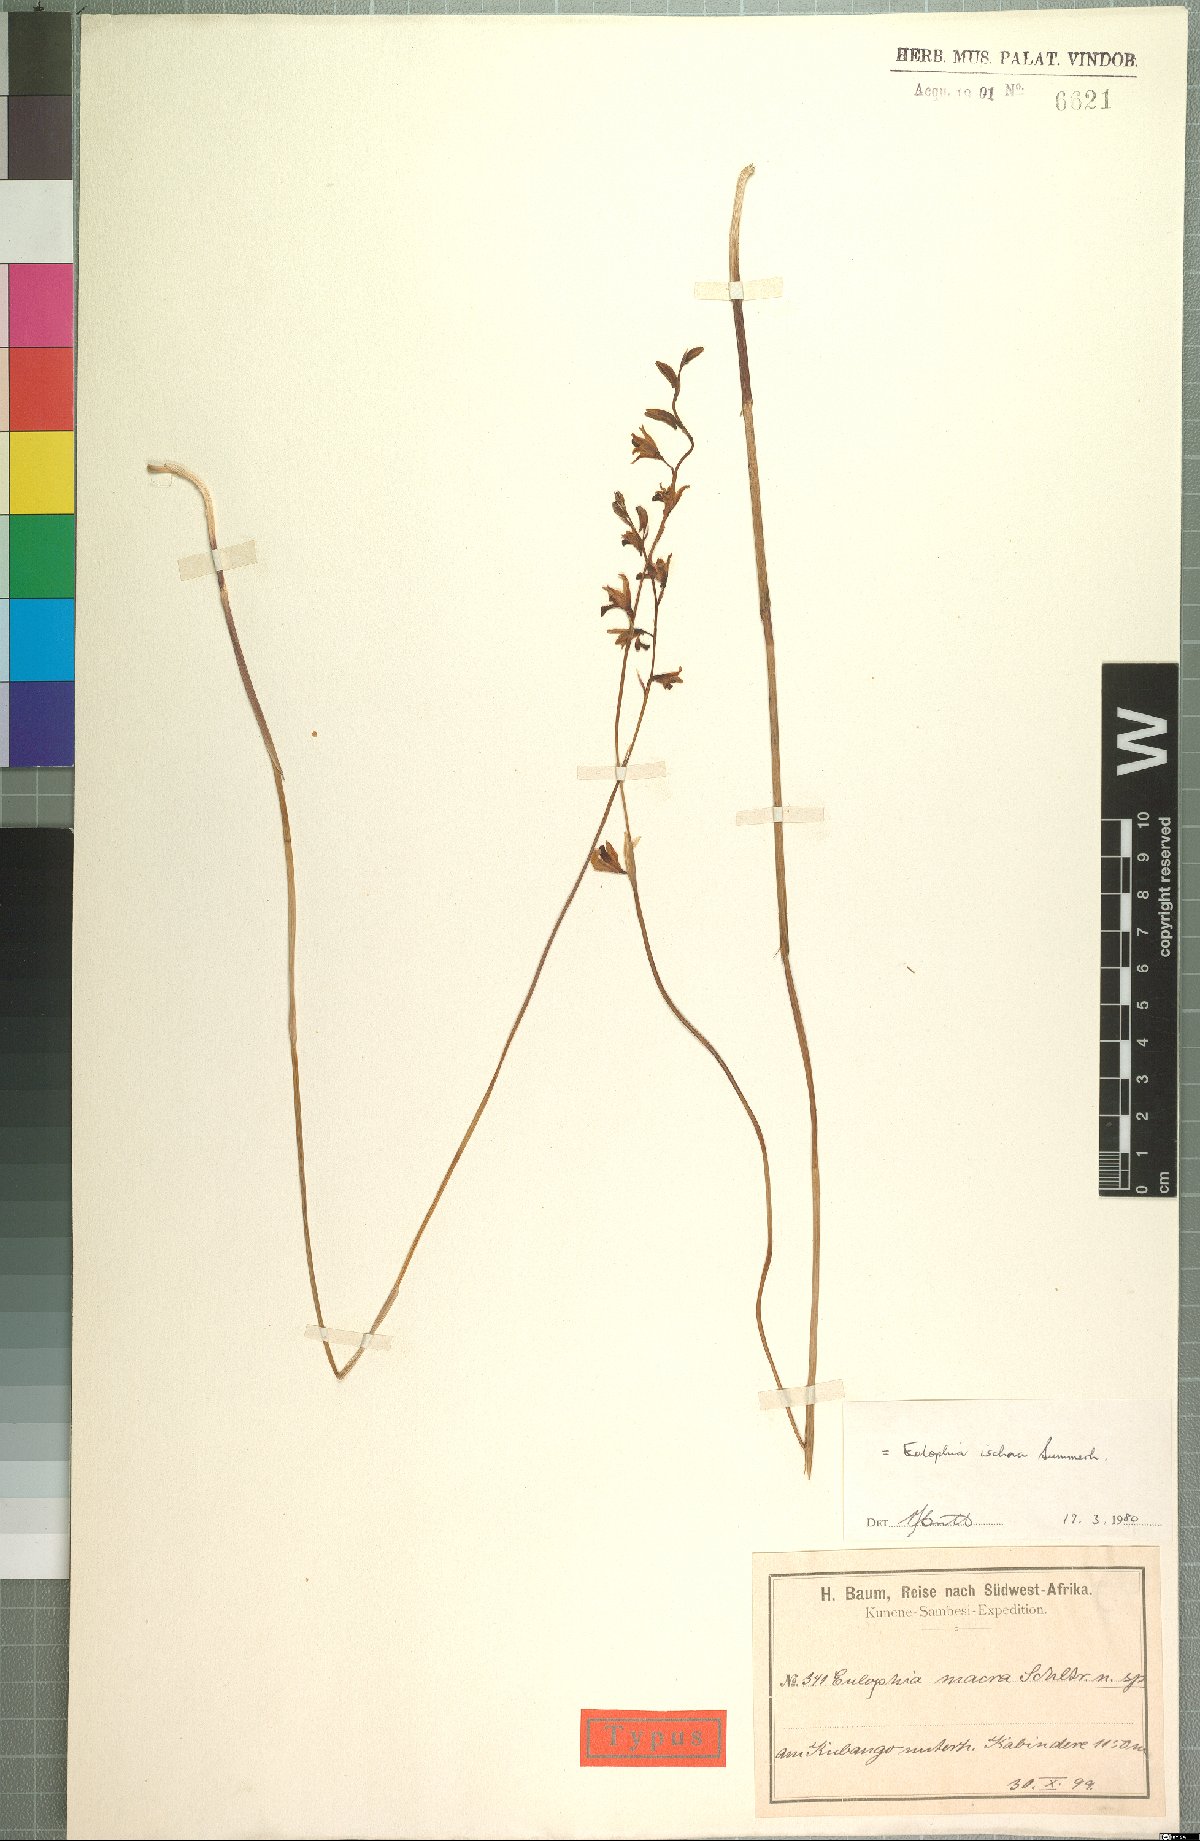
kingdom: Plantae
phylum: Tracheophyta
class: Liliopsida
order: Asparagales
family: Orchidaceae
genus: Eulophia
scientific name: Eulophia trilamellata
